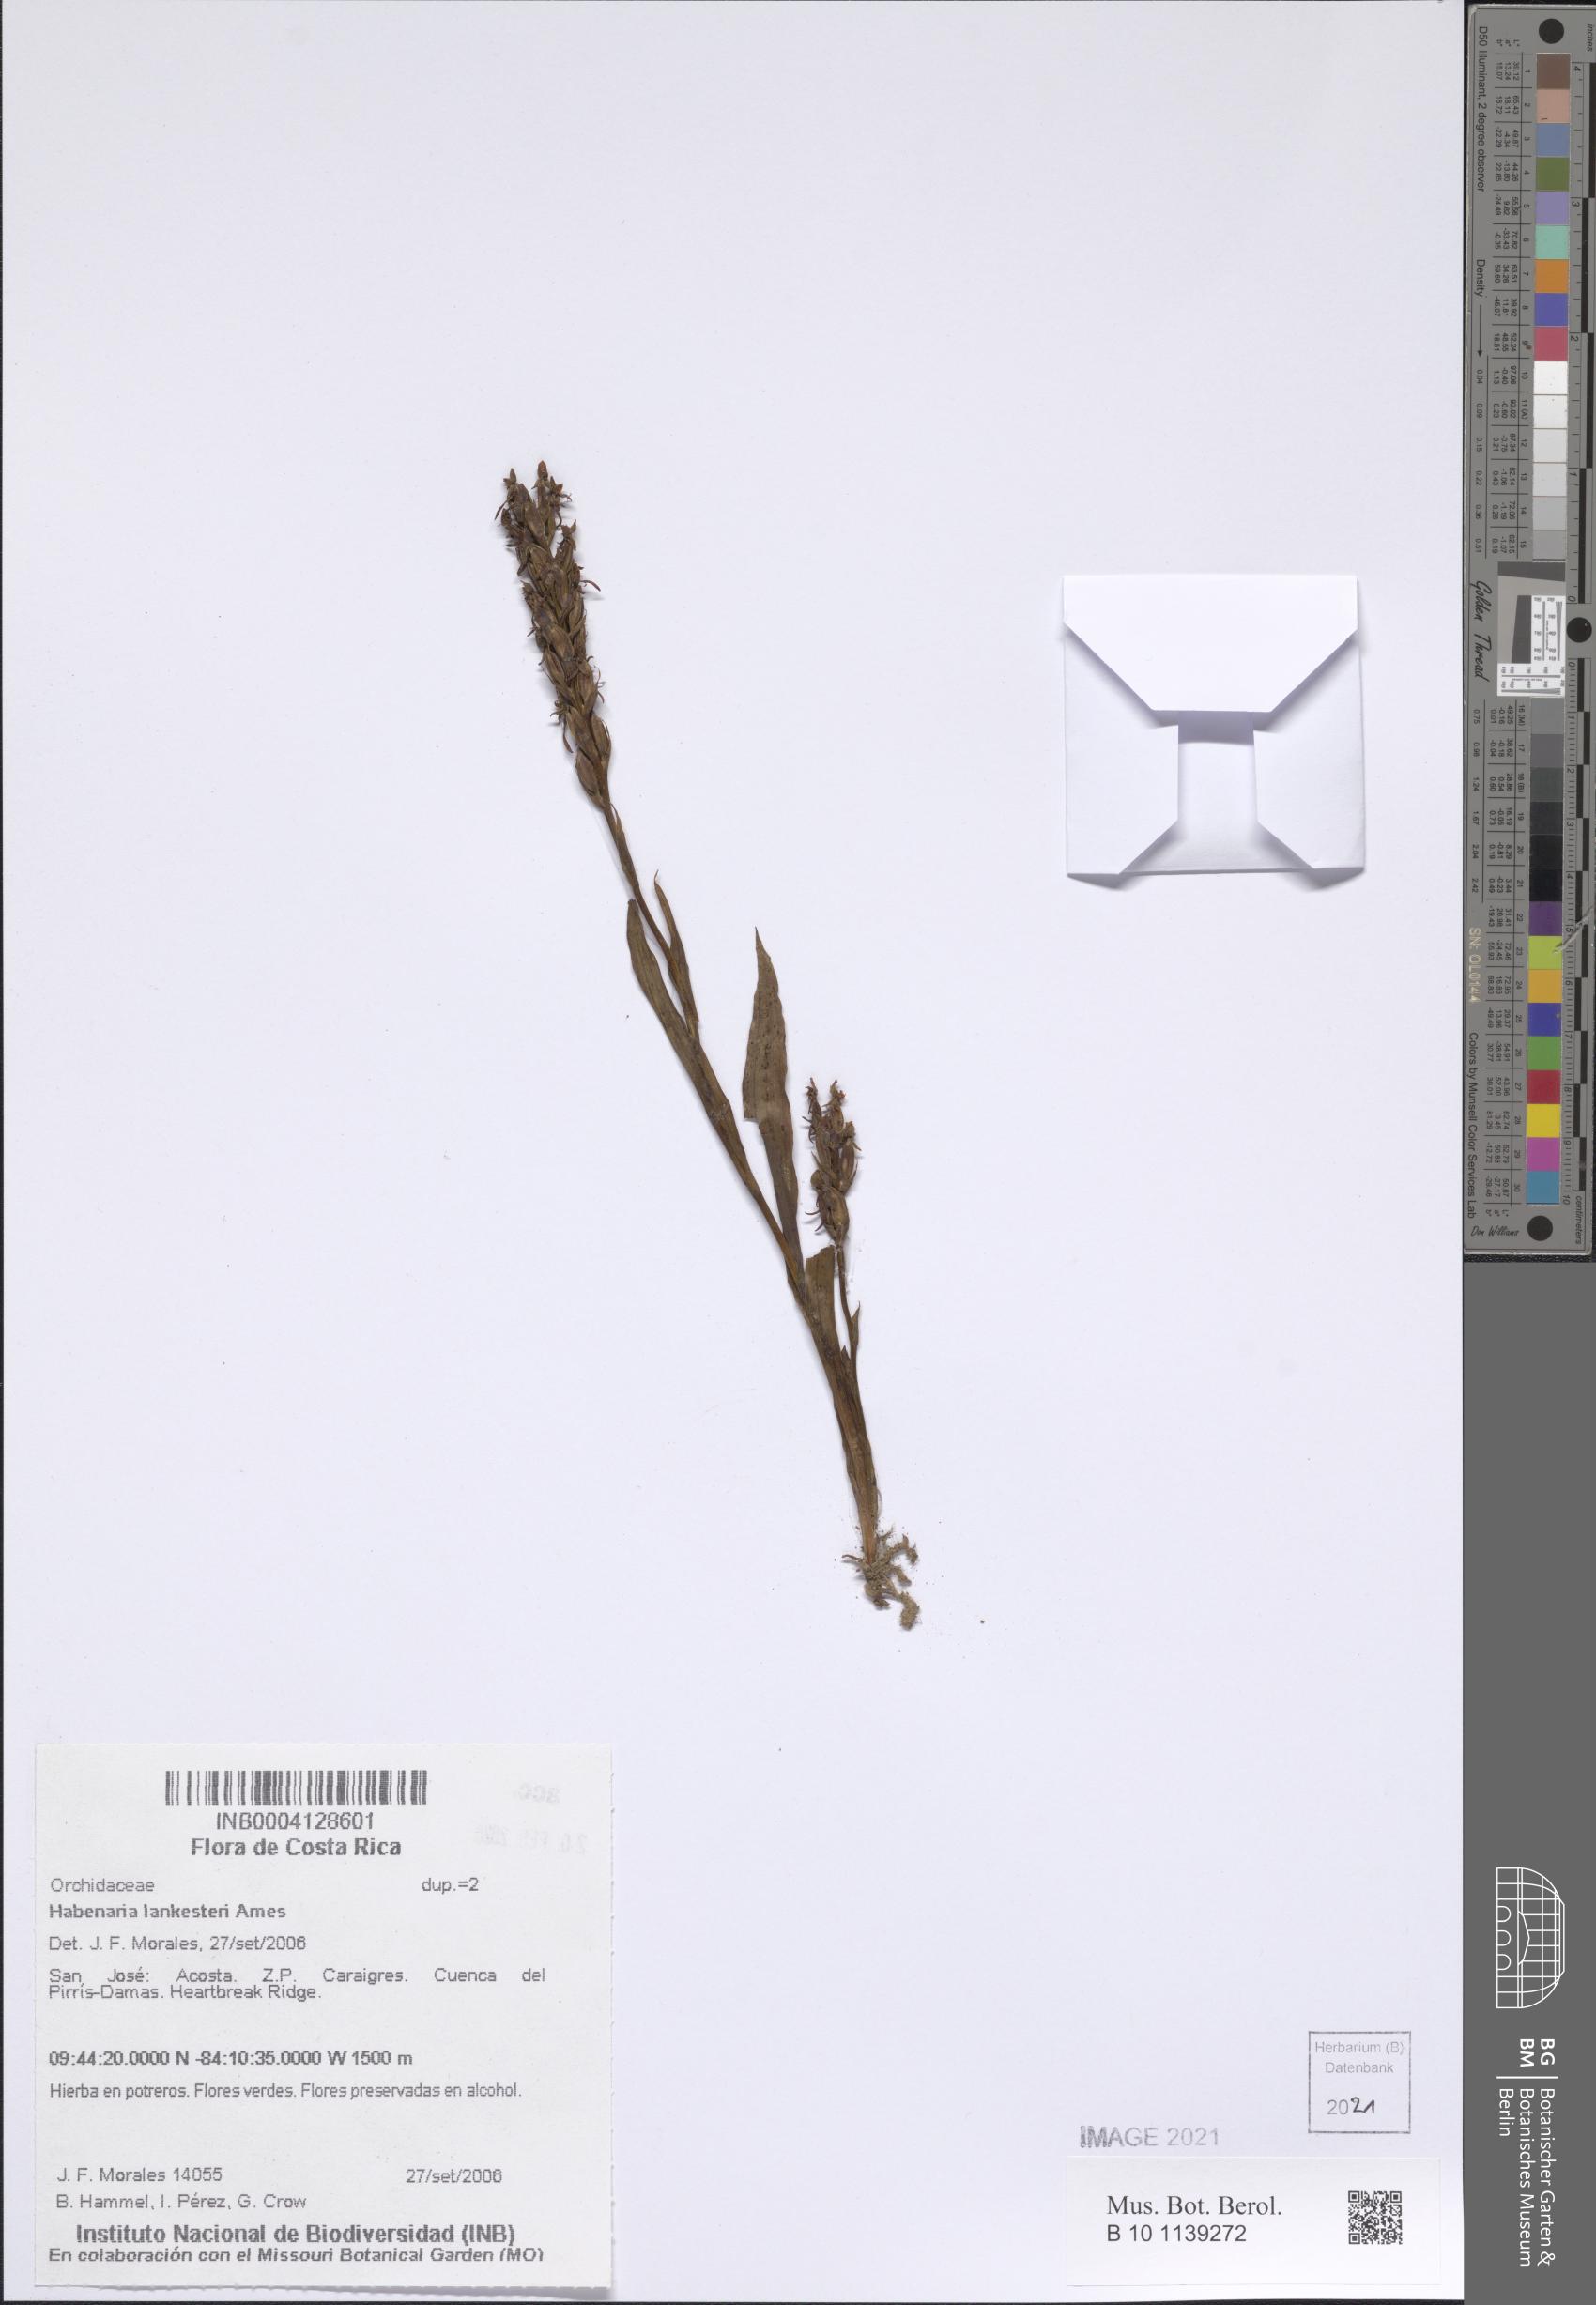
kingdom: Plantae
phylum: Tracheophyta
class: Liliopsida
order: Asparagales
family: Orchidaceae
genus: Habenaria
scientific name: Habenaria lankesteri
